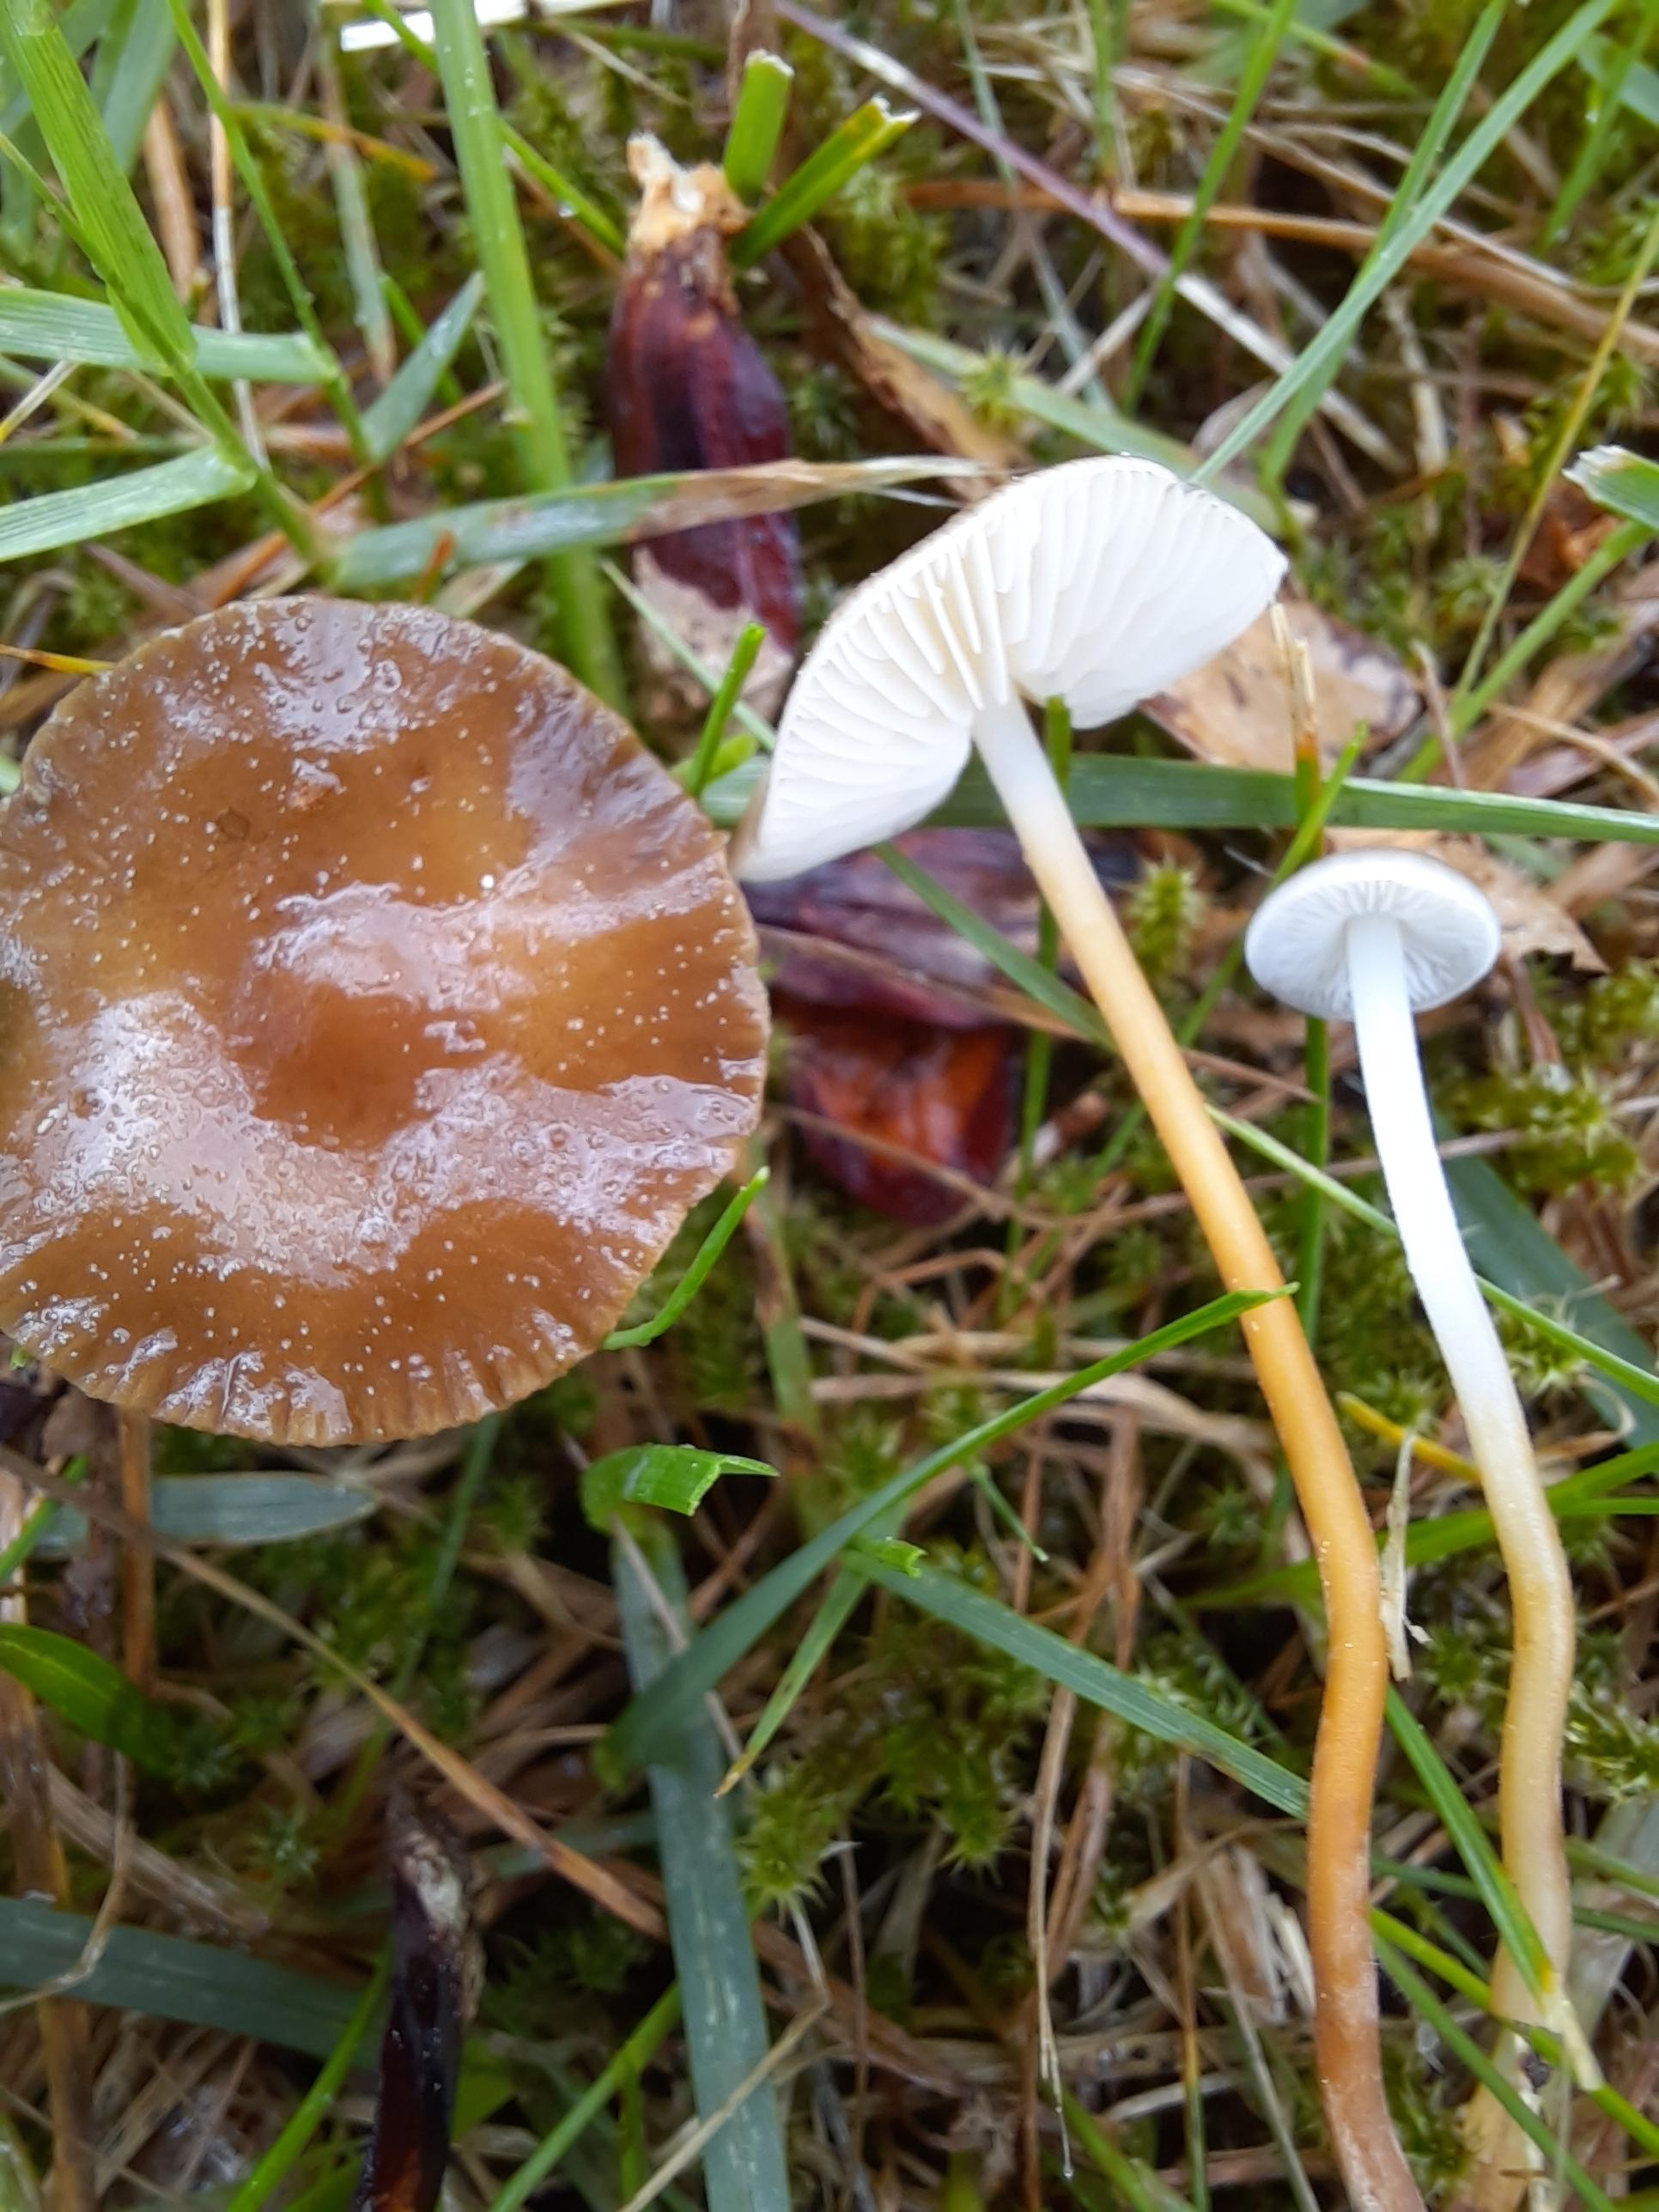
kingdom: Fungi
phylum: Basidiomycota
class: Agaricomycetes
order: Agaricales
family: Physalacriaceae
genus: Strobilurus
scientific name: Strobilurus tenacellus
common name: sommer-koglehat
